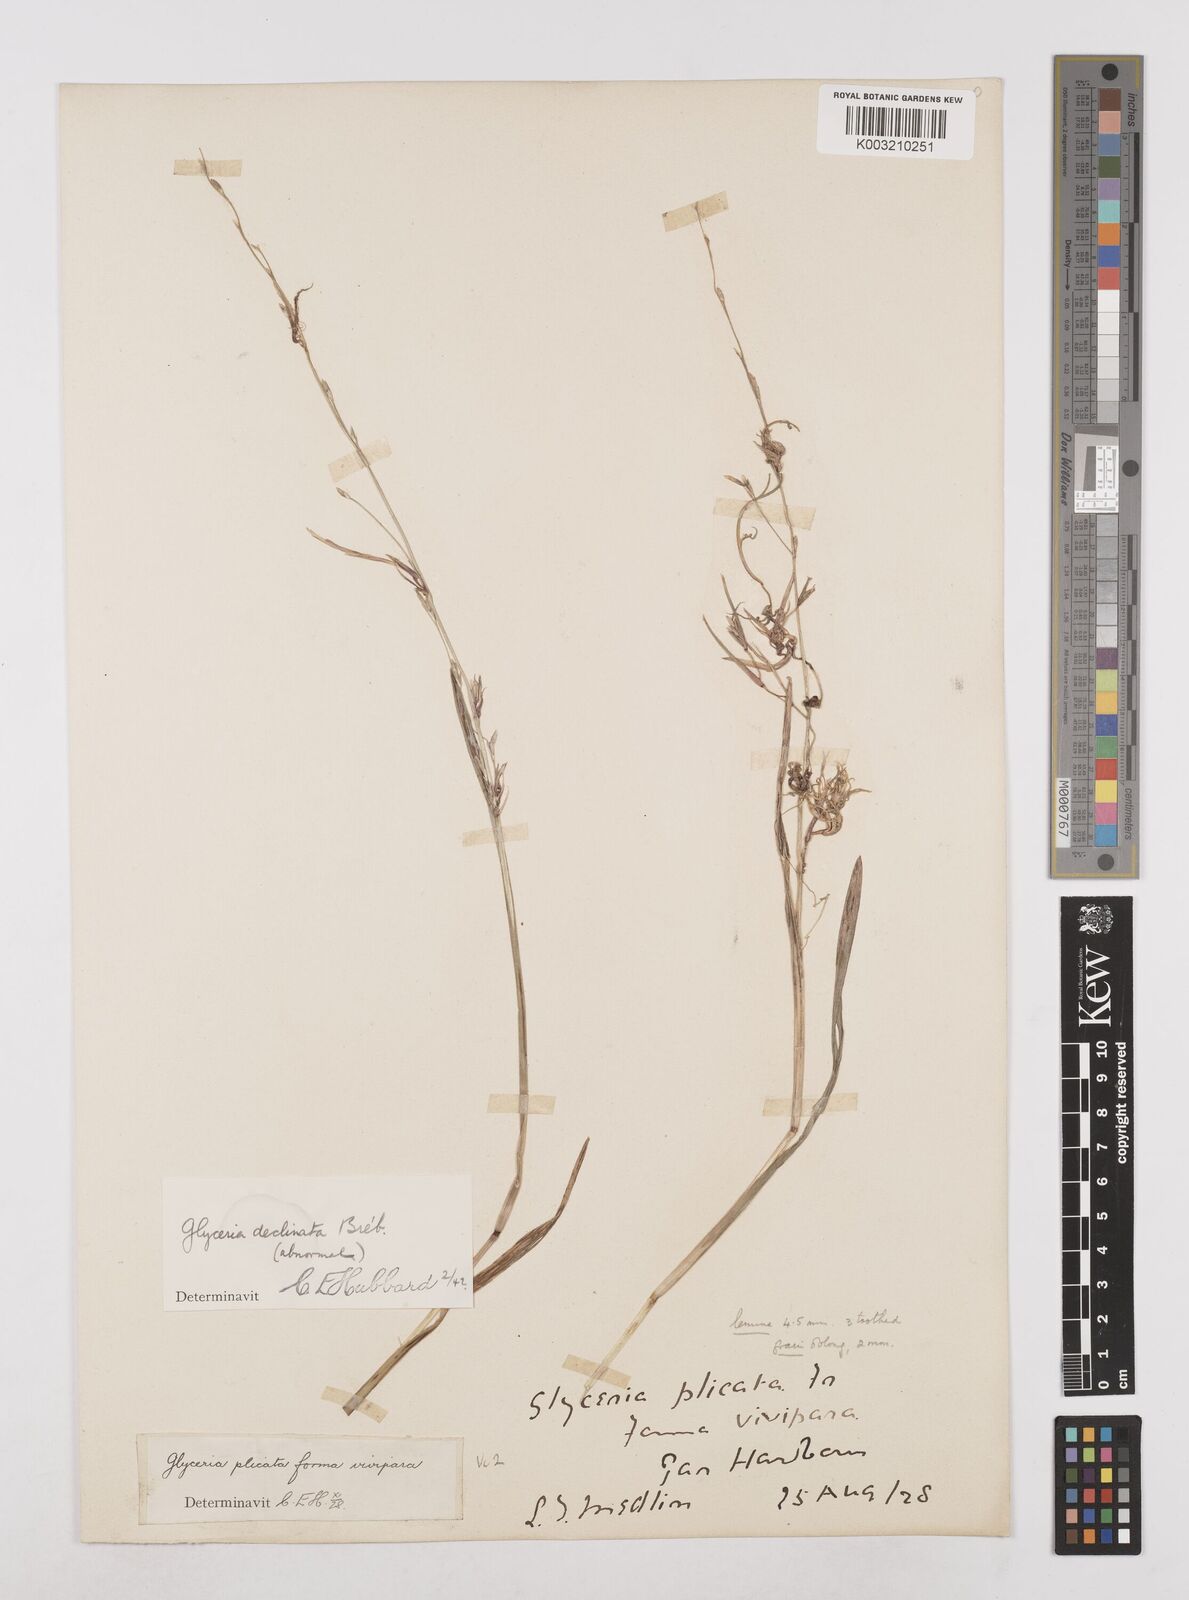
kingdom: Plantae
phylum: Tracheophyta
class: Liliopsida
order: Poales
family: Poaceae
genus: Glyceria
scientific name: Glyceria declinata
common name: Small sweet-grass
